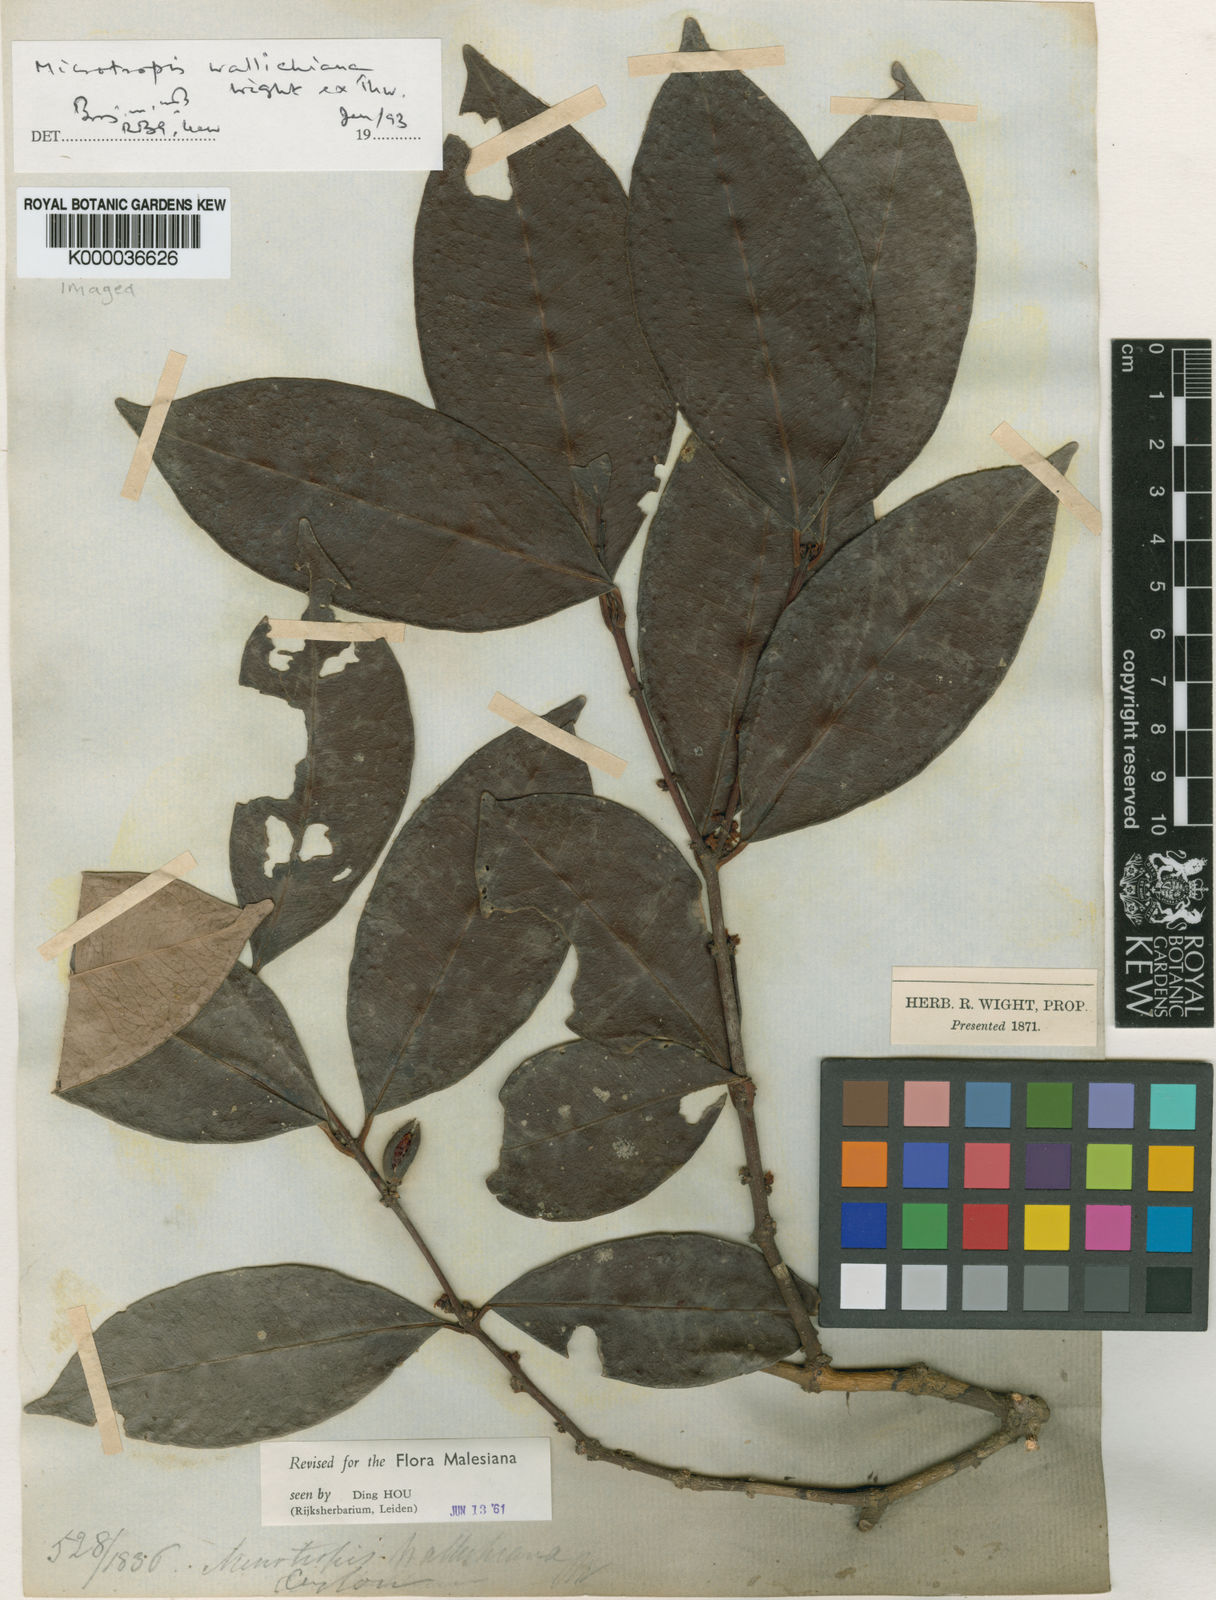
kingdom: Plantae
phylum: Tracheophyta
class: Magnoliopsida
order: Celastrales
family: Celastraceae
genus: Microtropis
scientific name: Microtropis wallichiana
